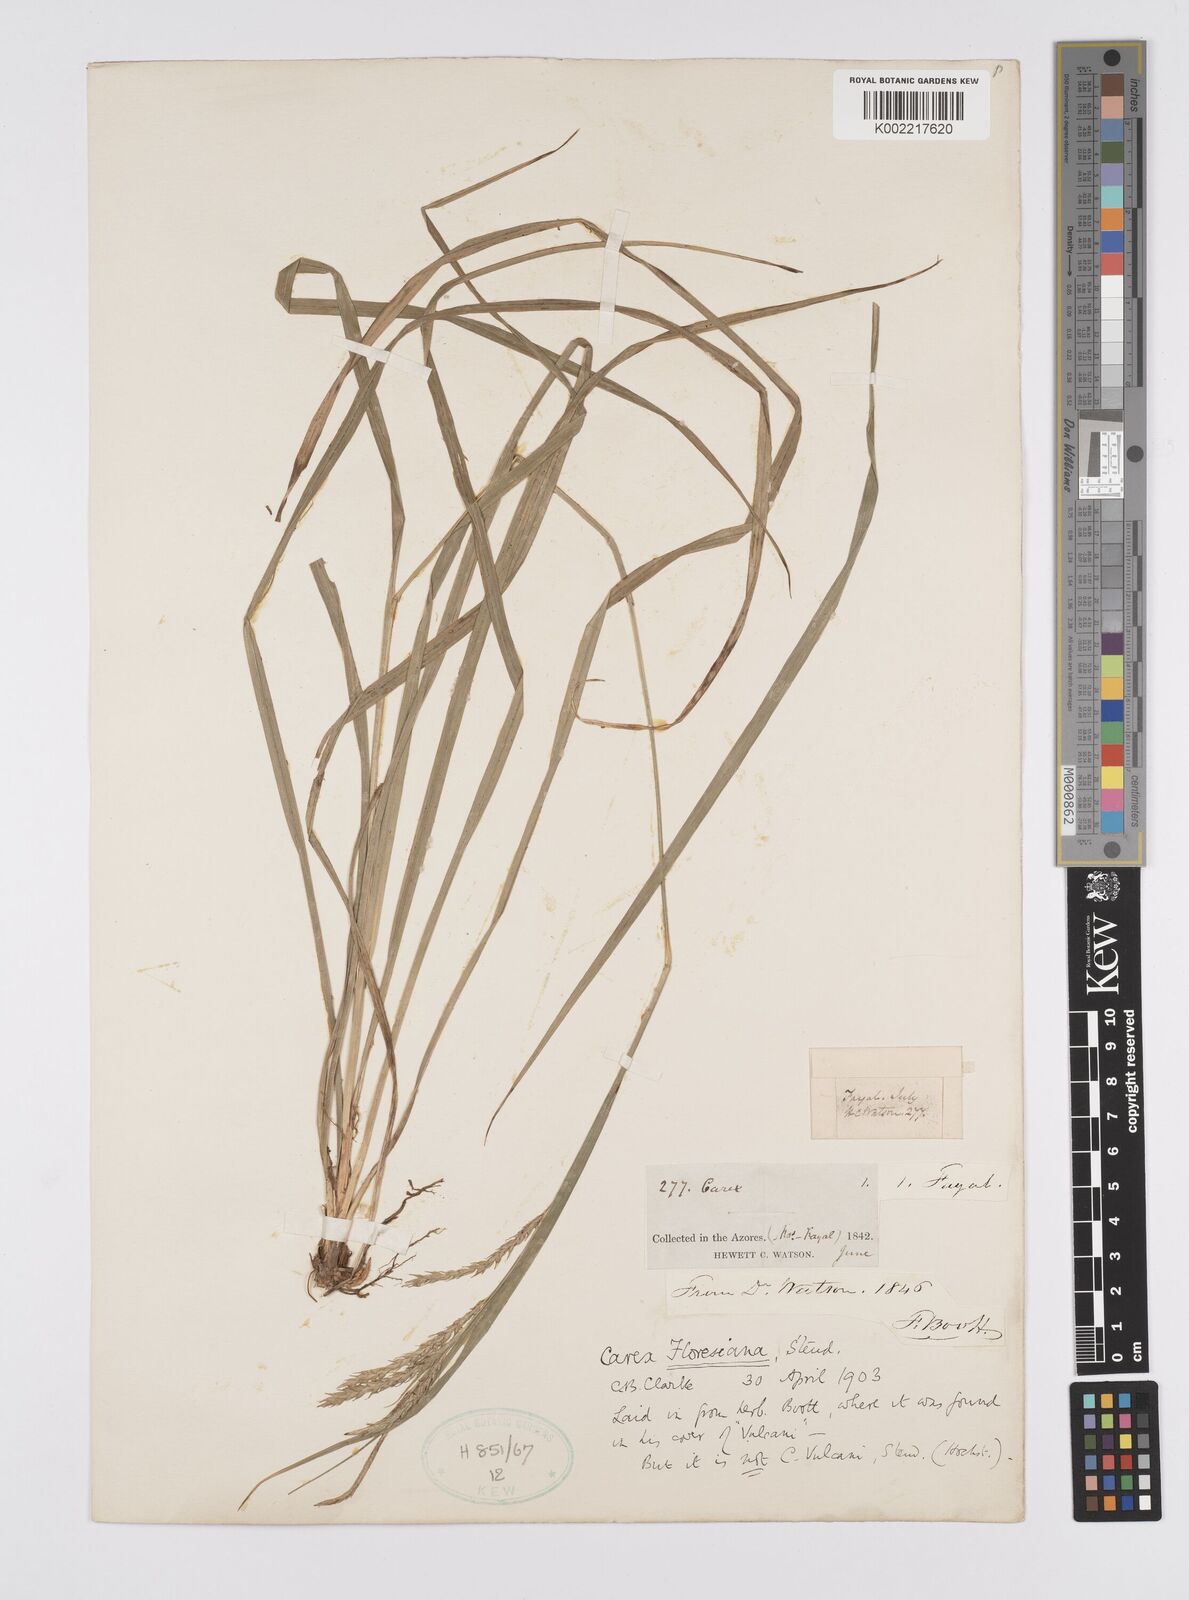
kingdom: Plantae
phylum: Tracheophyta
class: Liliopsida
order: Poales
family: Cyperaceae
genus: Carex
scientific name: Carex vulcani
